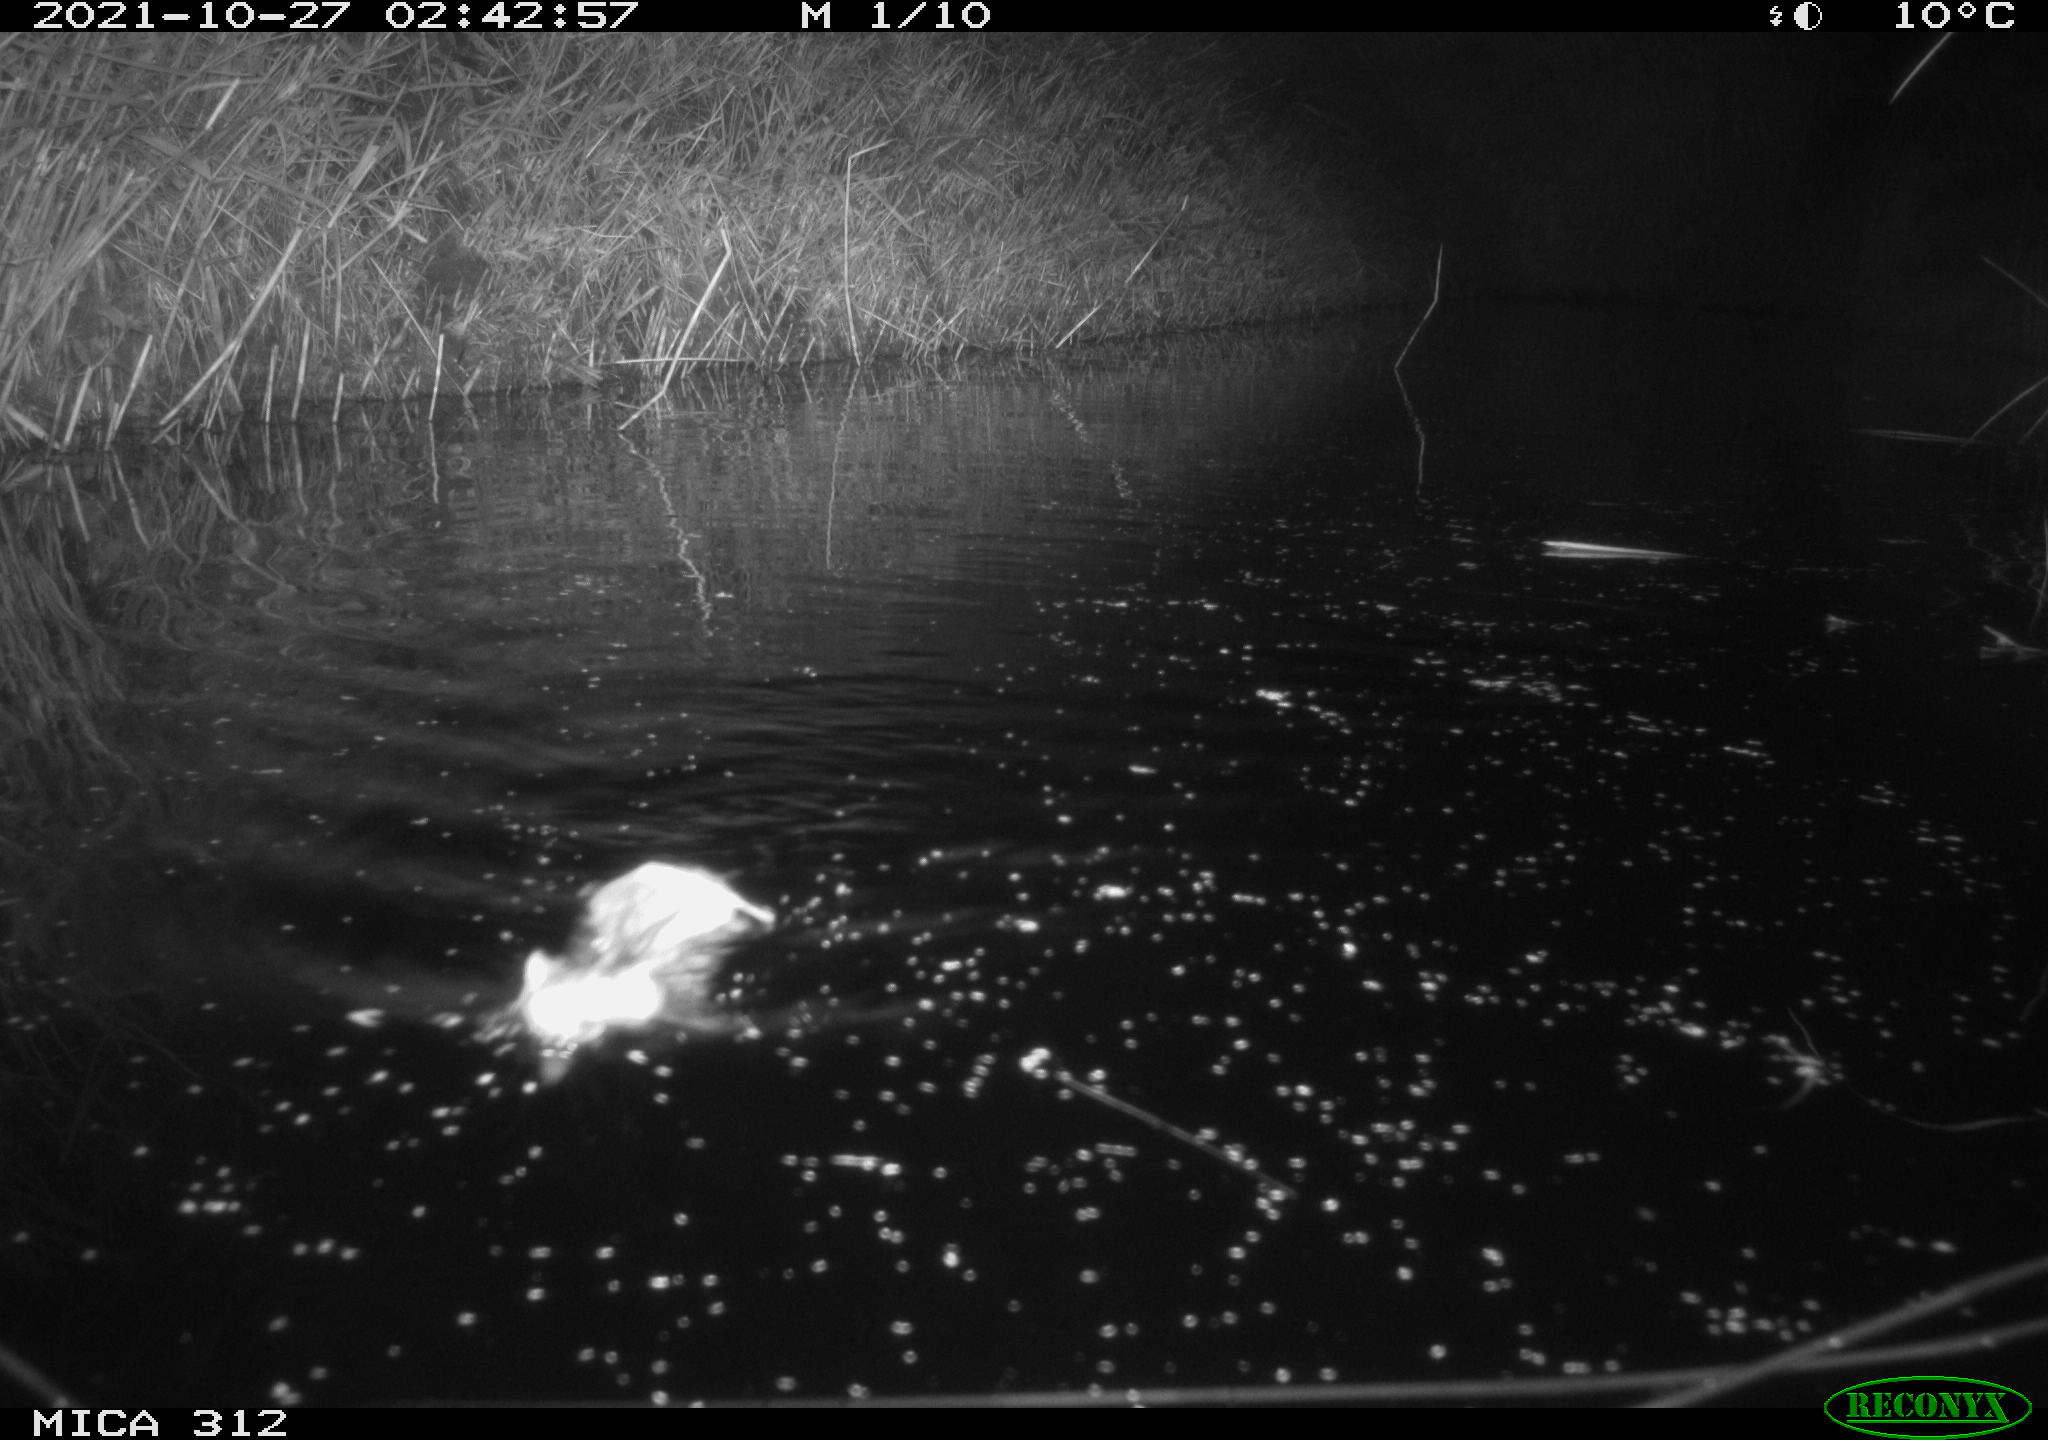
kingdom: Animalia
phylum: Chordata
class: Mammalia
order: Rodentia
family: Cricetidae
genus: Ondatra
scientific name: Ondatra zibethicus
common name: Muskrat
